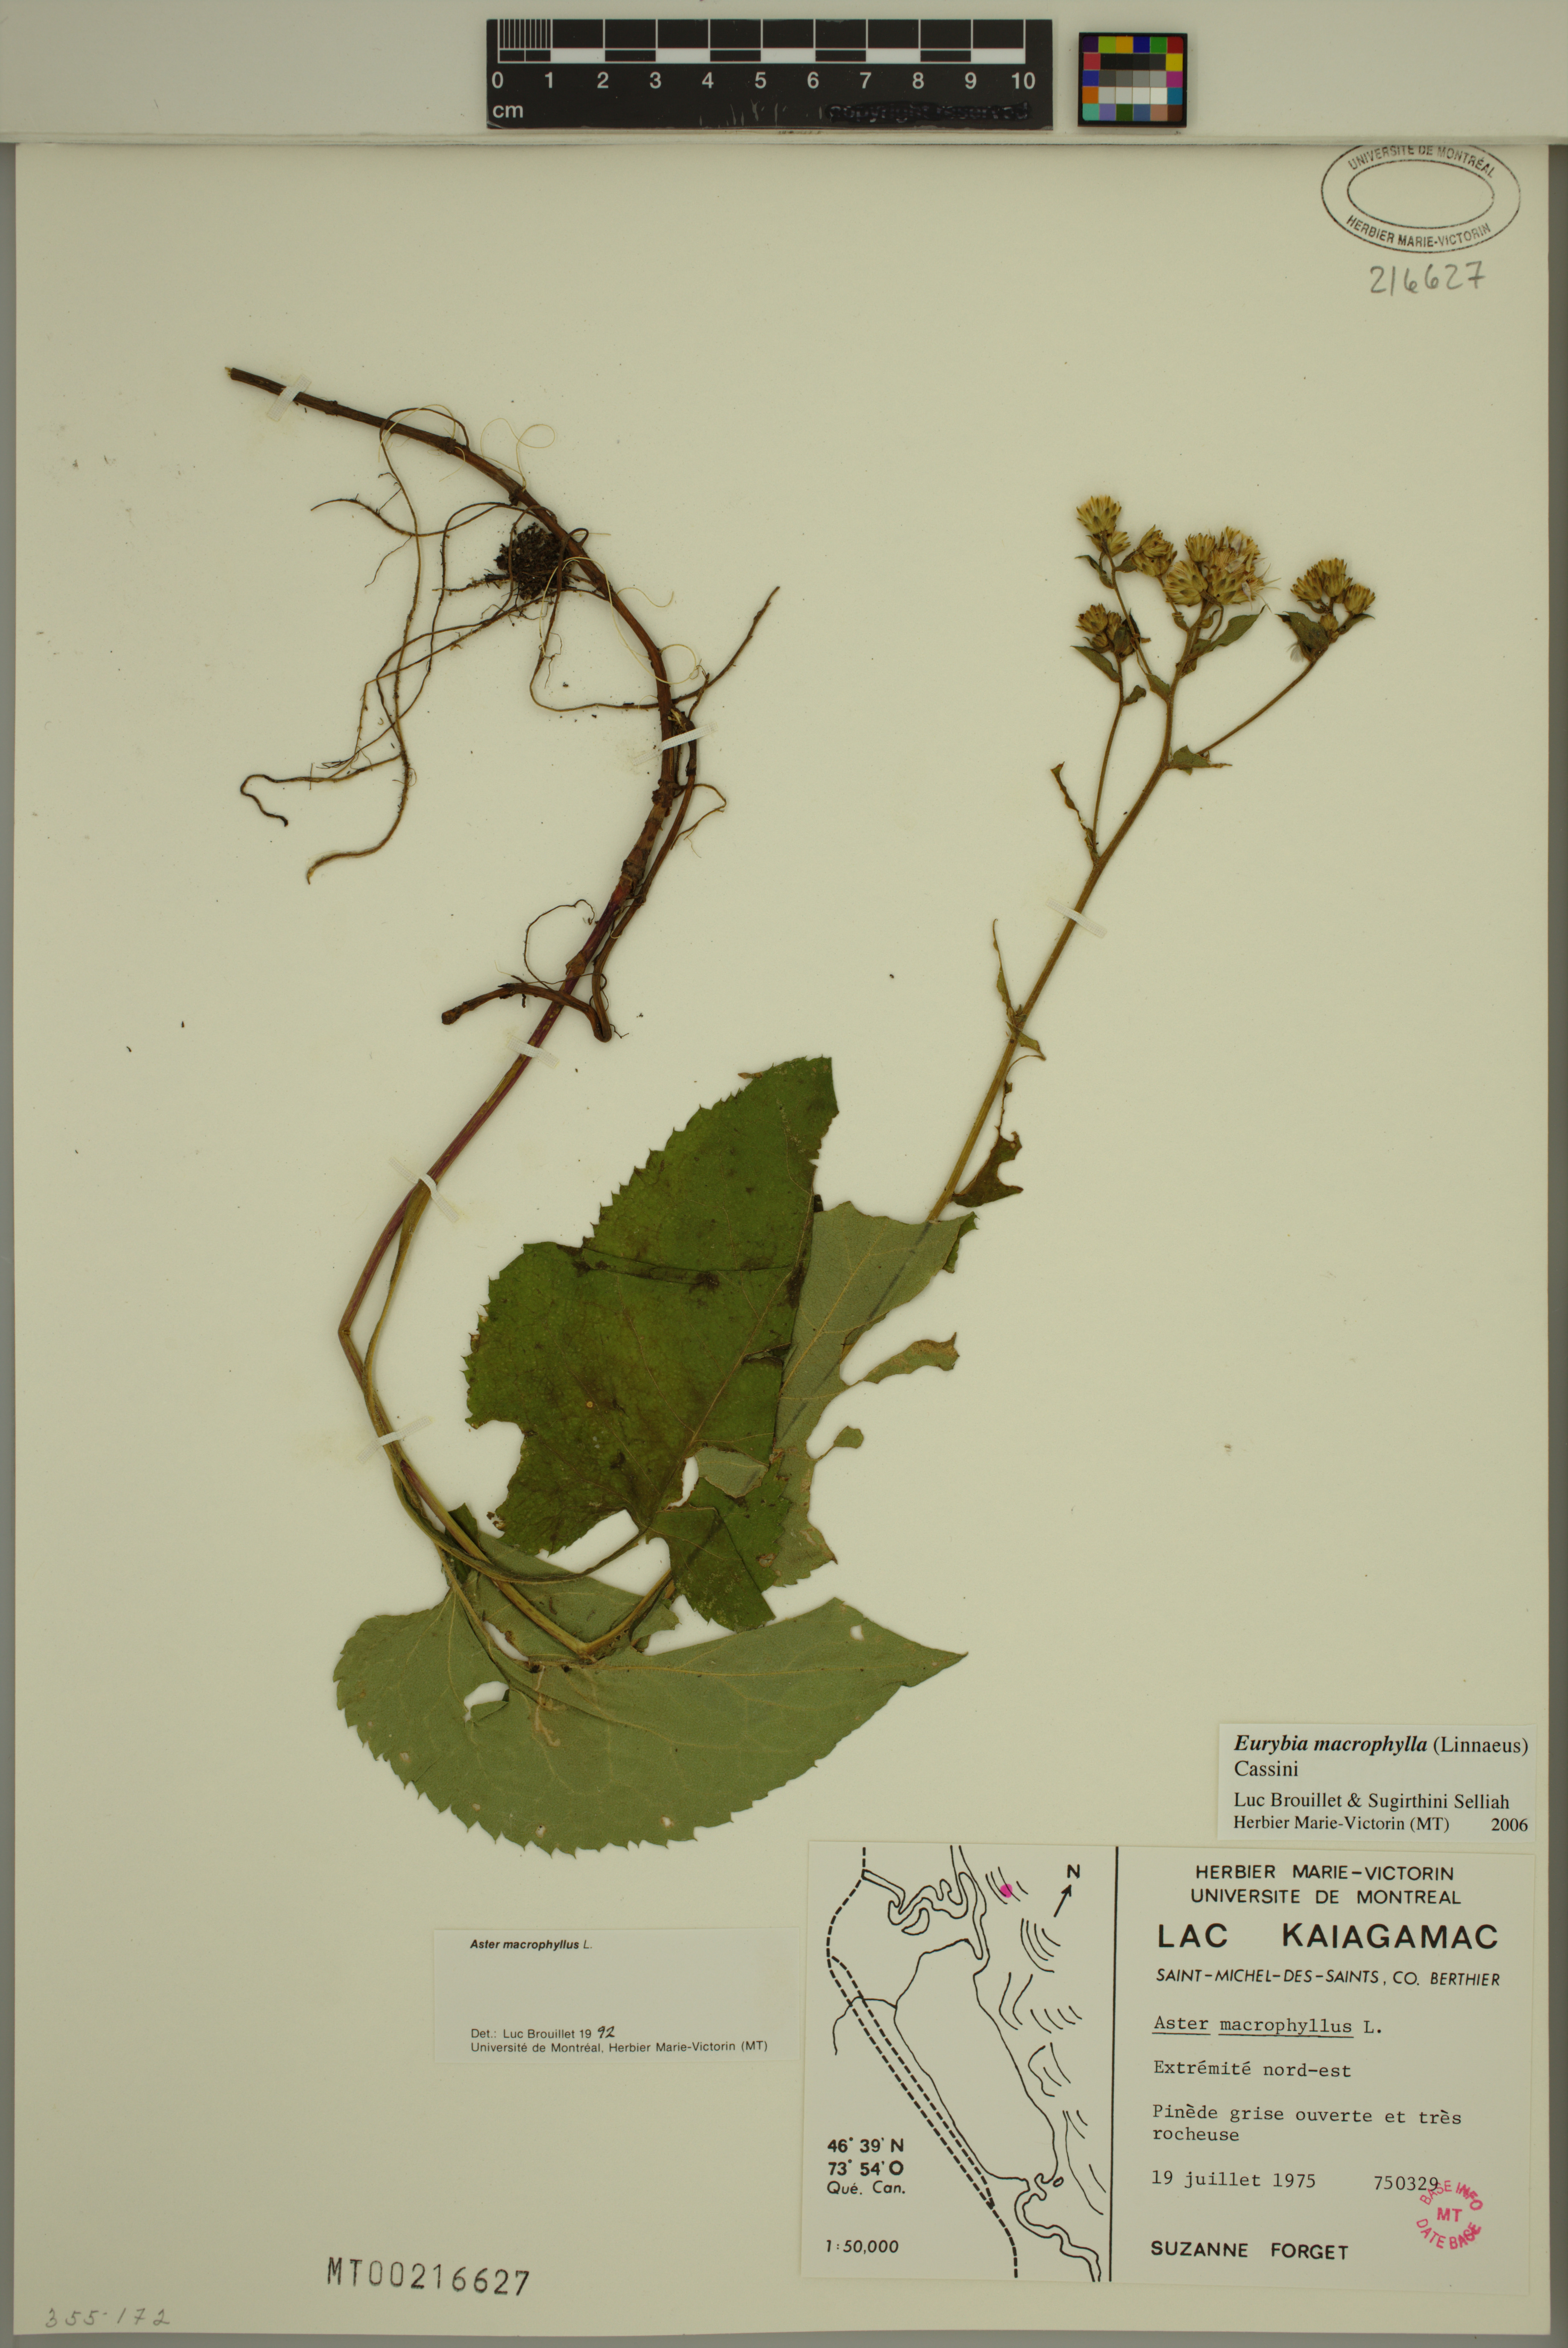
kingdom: Plantae
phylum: Tracheophyta
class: Magnoliopsida
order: Asterales
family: Asteraceae
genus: Eurybia
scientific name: Eurybia macrophylla
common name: Big-leaved aster
